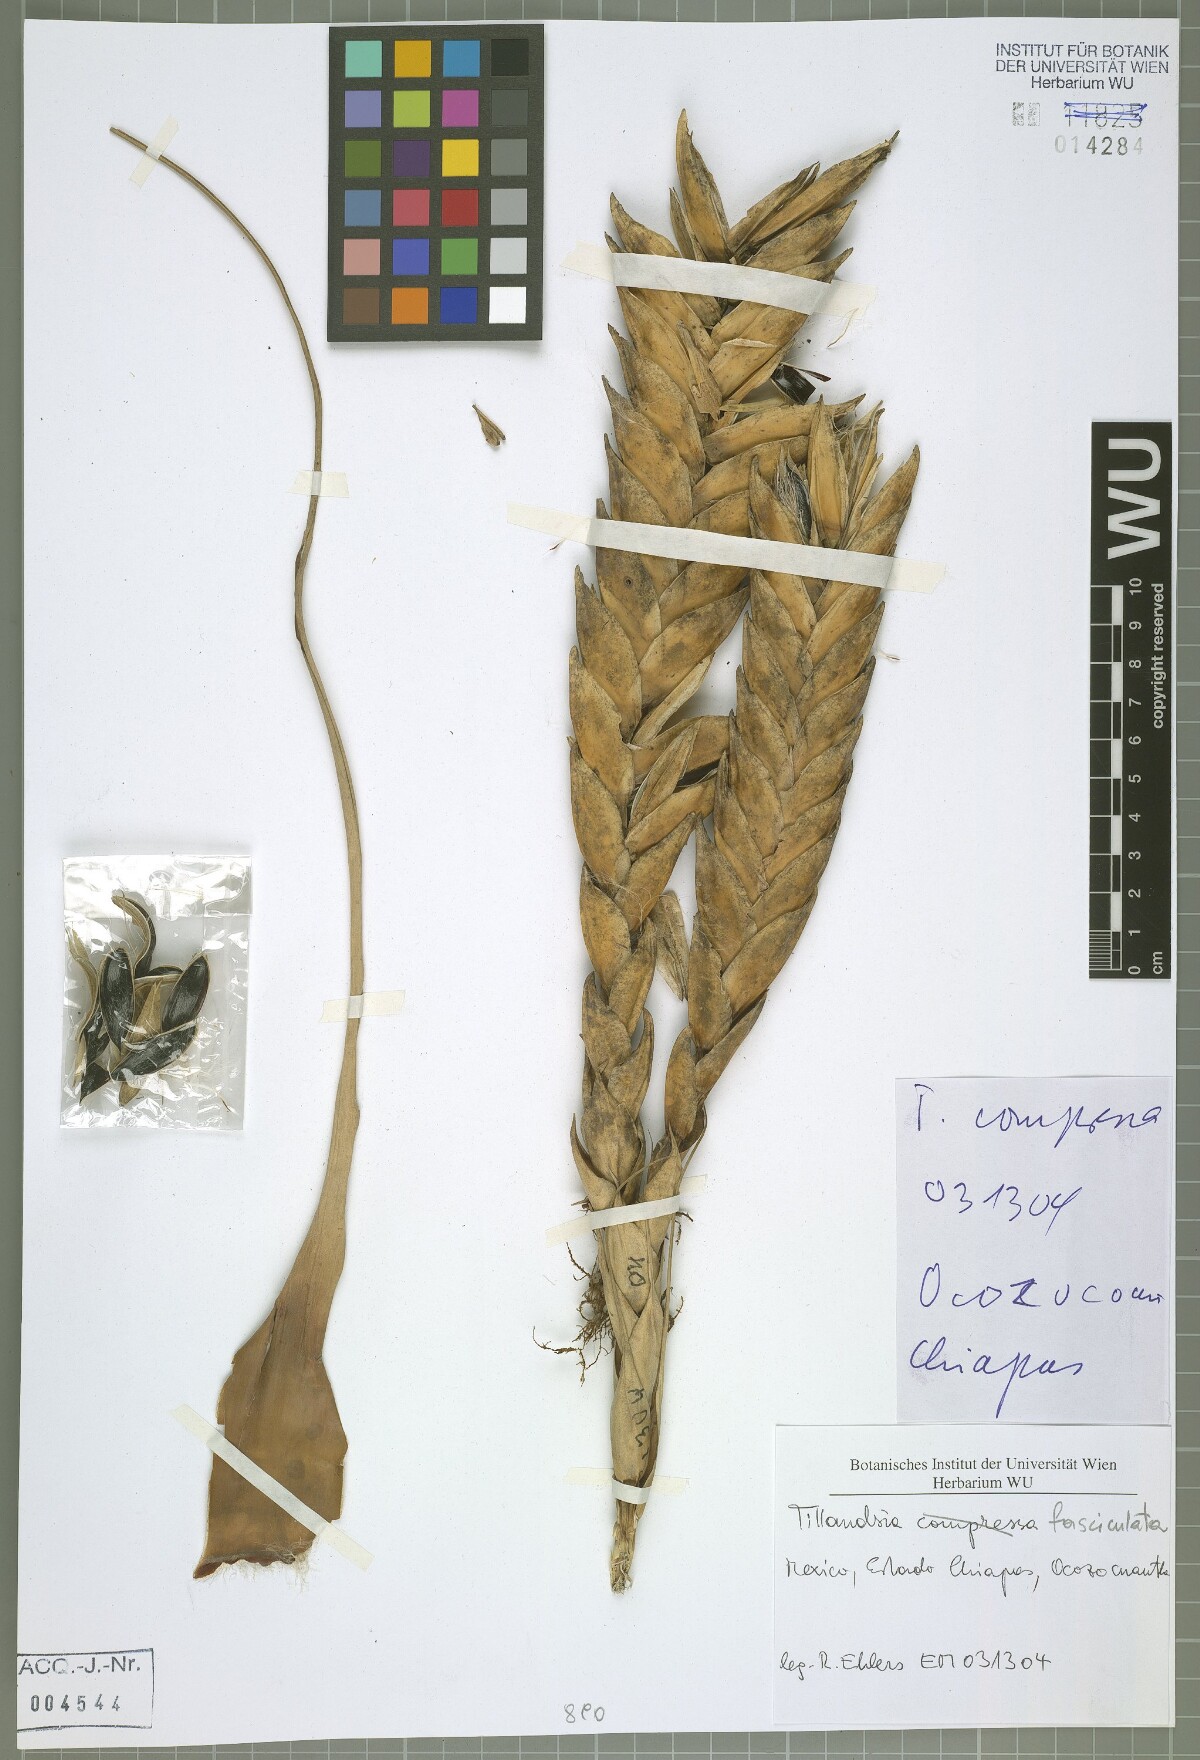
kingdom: Plantae
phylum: Tracheophyta
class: Liliopsida
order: Poales
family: Bromeliaceae
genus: Tillandsia
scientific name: Tillandsia fasciculata
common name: Giant airplant
